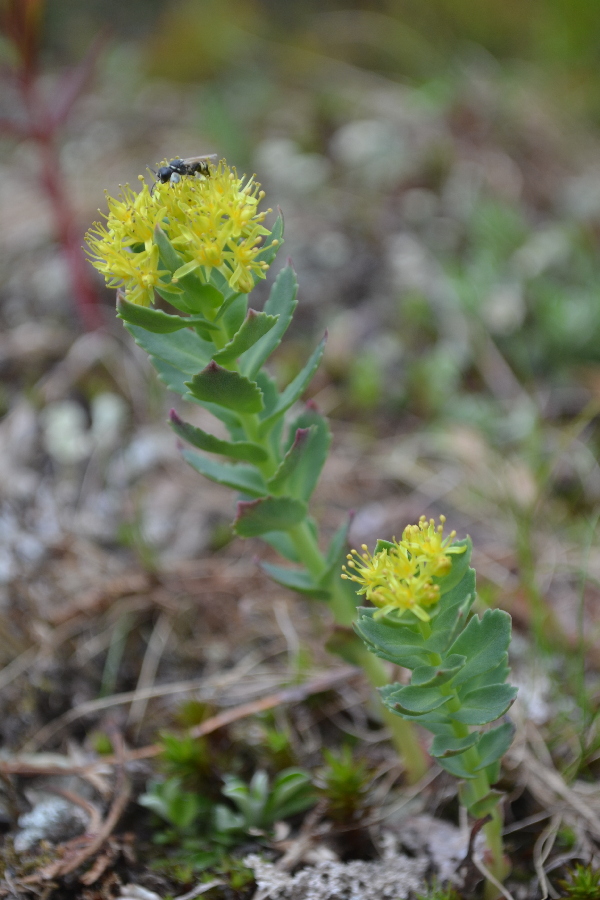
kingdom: Plantae
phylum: Tracheophyta
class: Magnoliopsida
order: Saxifragales
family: Crassulaceae
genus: Rhodiola
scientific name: Rhodiola rosea
